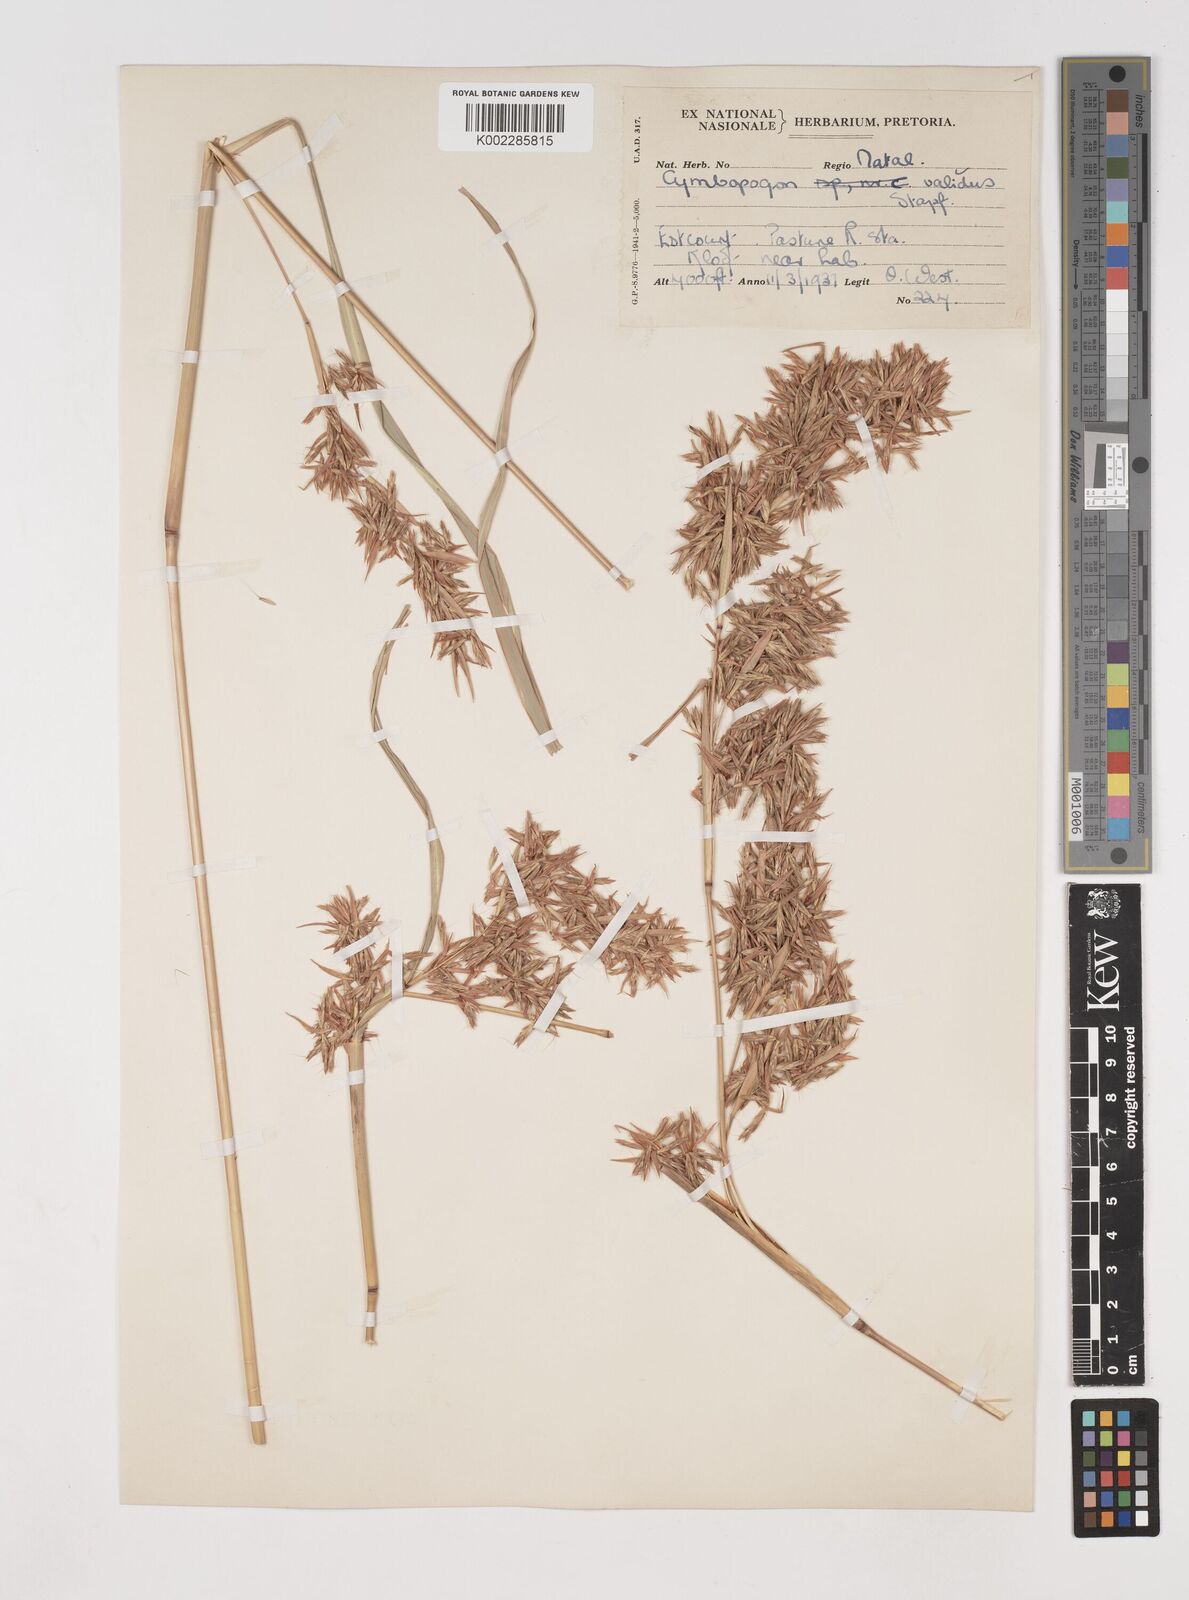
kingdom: Plantae
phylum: Tracheophyta
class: Liliopsida
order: Poales
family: Poaceae
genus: Cymbopogon
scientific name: Cymbopogon nardus
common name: Giant turpentine grass
